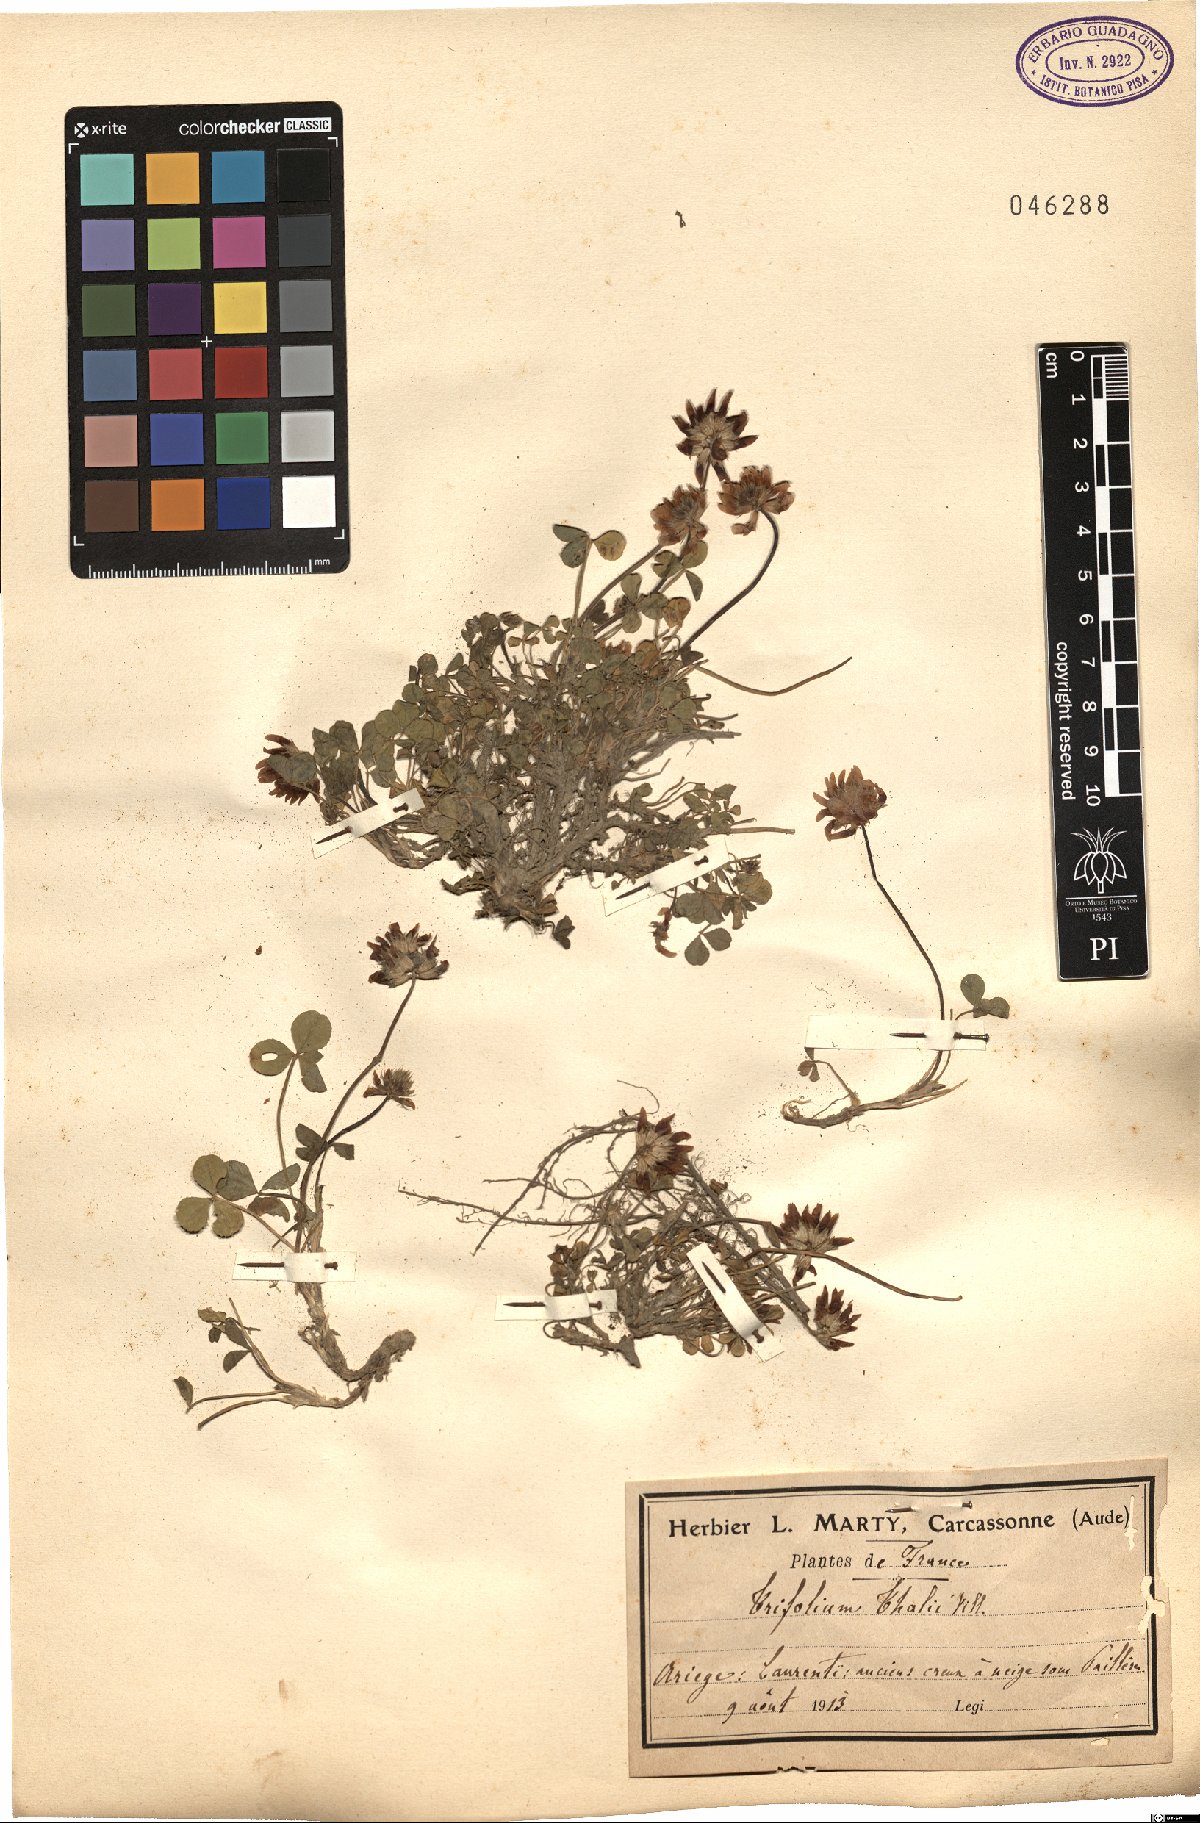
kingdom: Plantae
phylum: Tracheophyta
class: Magnoliopsida
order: Fabales
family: Fabaceae
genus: Trifolium
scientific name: Trifolium thalii
